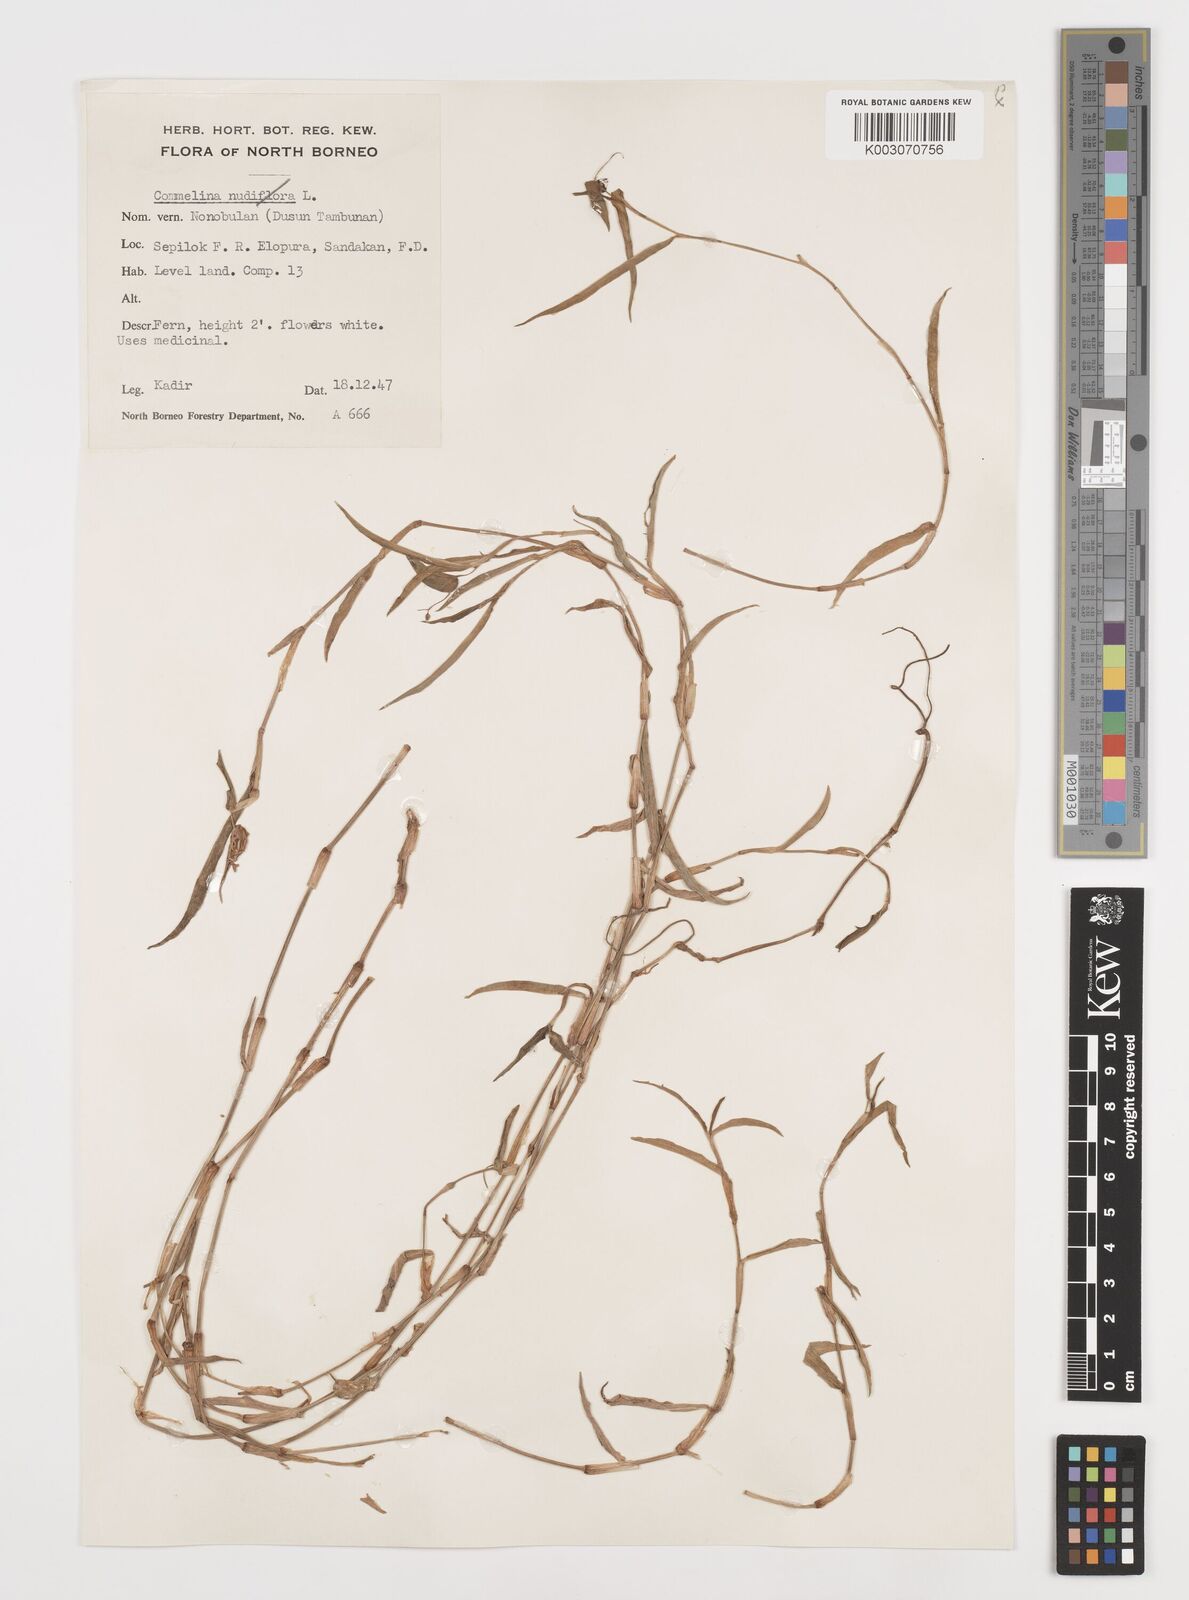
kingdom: Plantae
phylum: Tracheophyta
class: Liliopsida
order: Commelinales
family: Commelinaceae
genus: Commelina
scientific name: Commelina longifolia
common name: Longleaf dayflower
